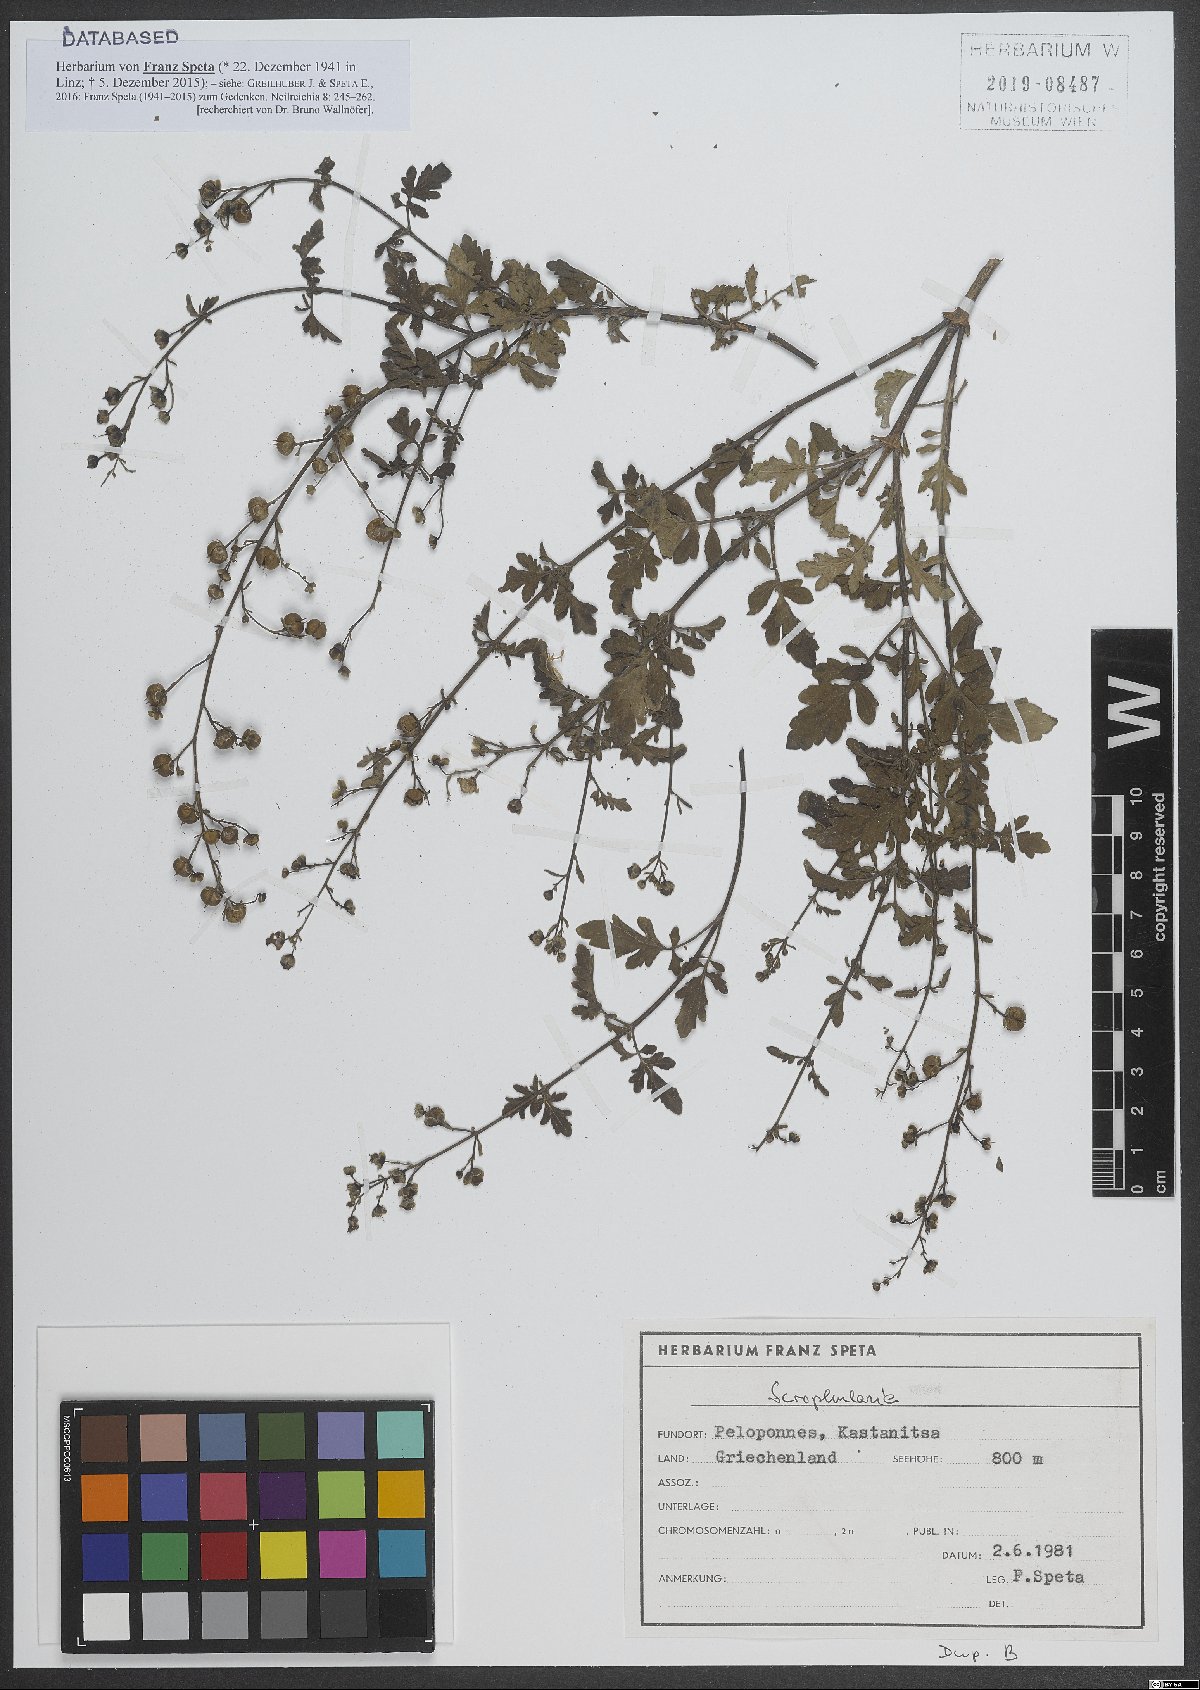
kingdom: Plantae
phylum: Tracheophyta
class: Magnoliopsida
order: Lamiales
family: Scrophulariaceae
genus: Scrophularia
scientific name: Scrophularia
